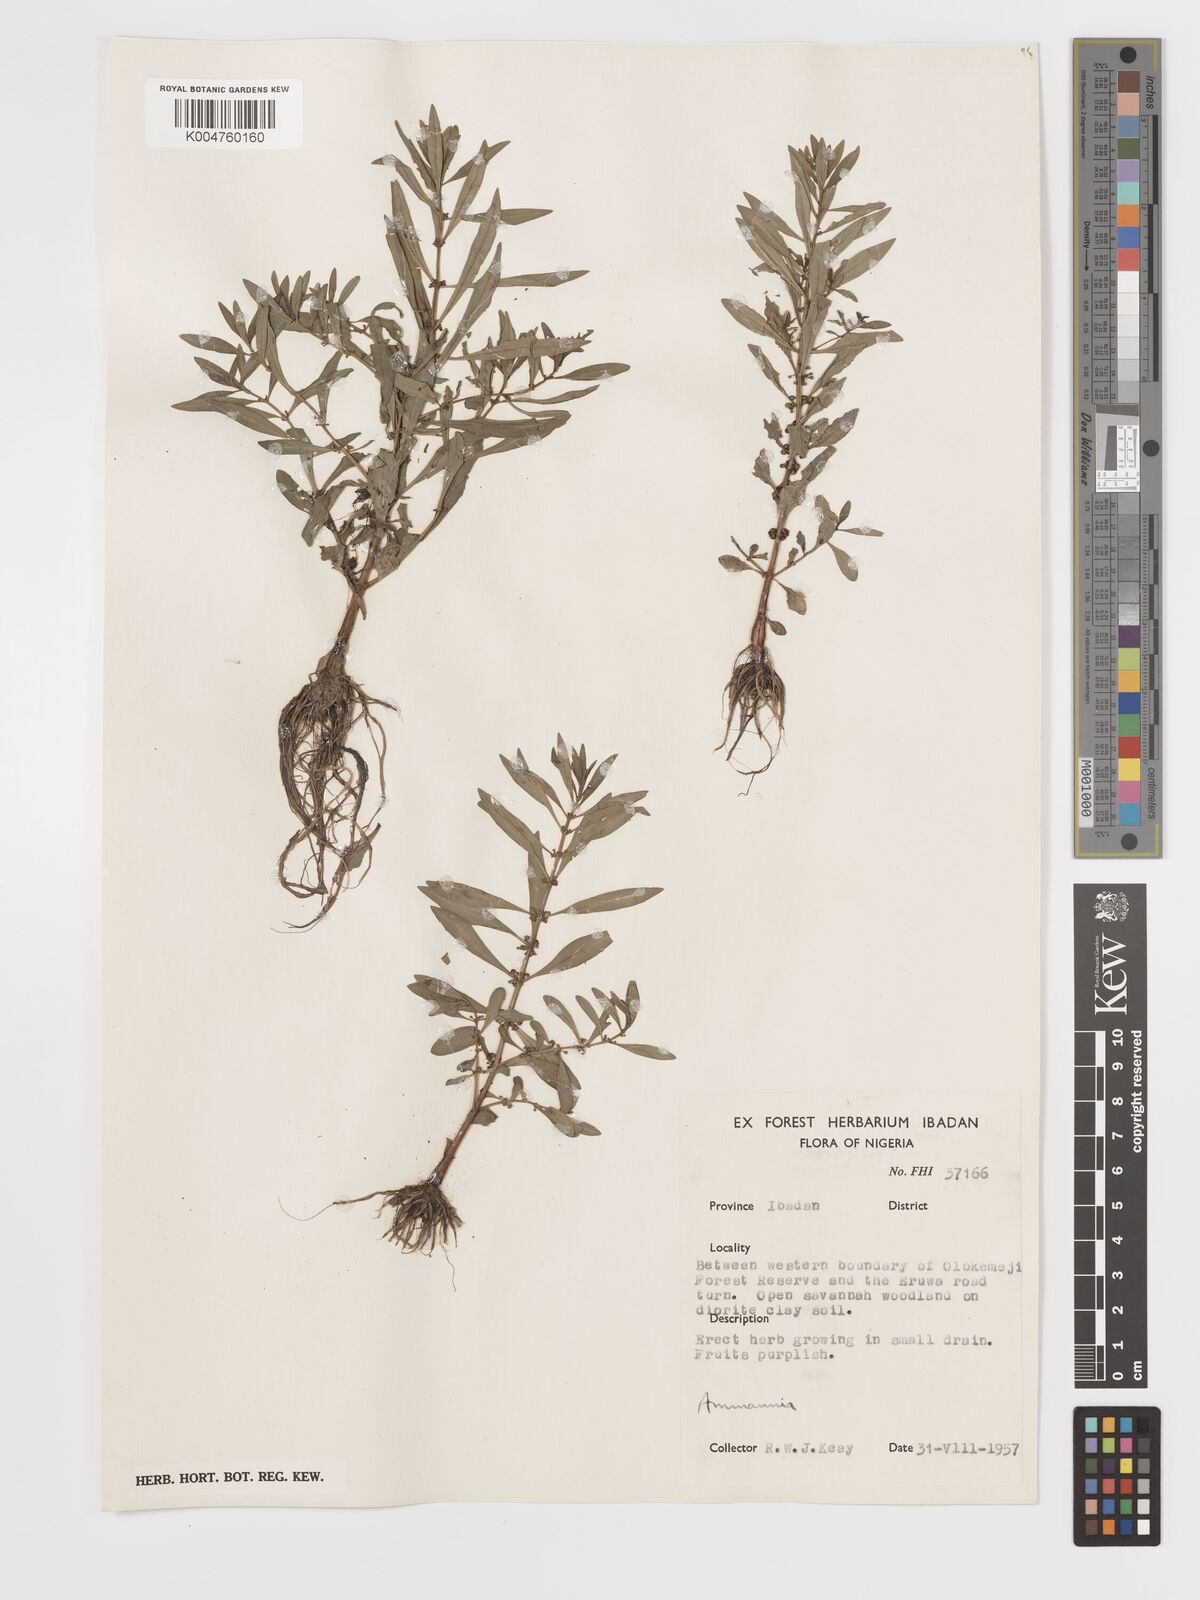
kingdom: Plantae
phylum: Tracheophyta
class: Magnoliopsida
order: Myrtales
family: Lythraceae
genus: Ammannia
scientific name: Ammannia
